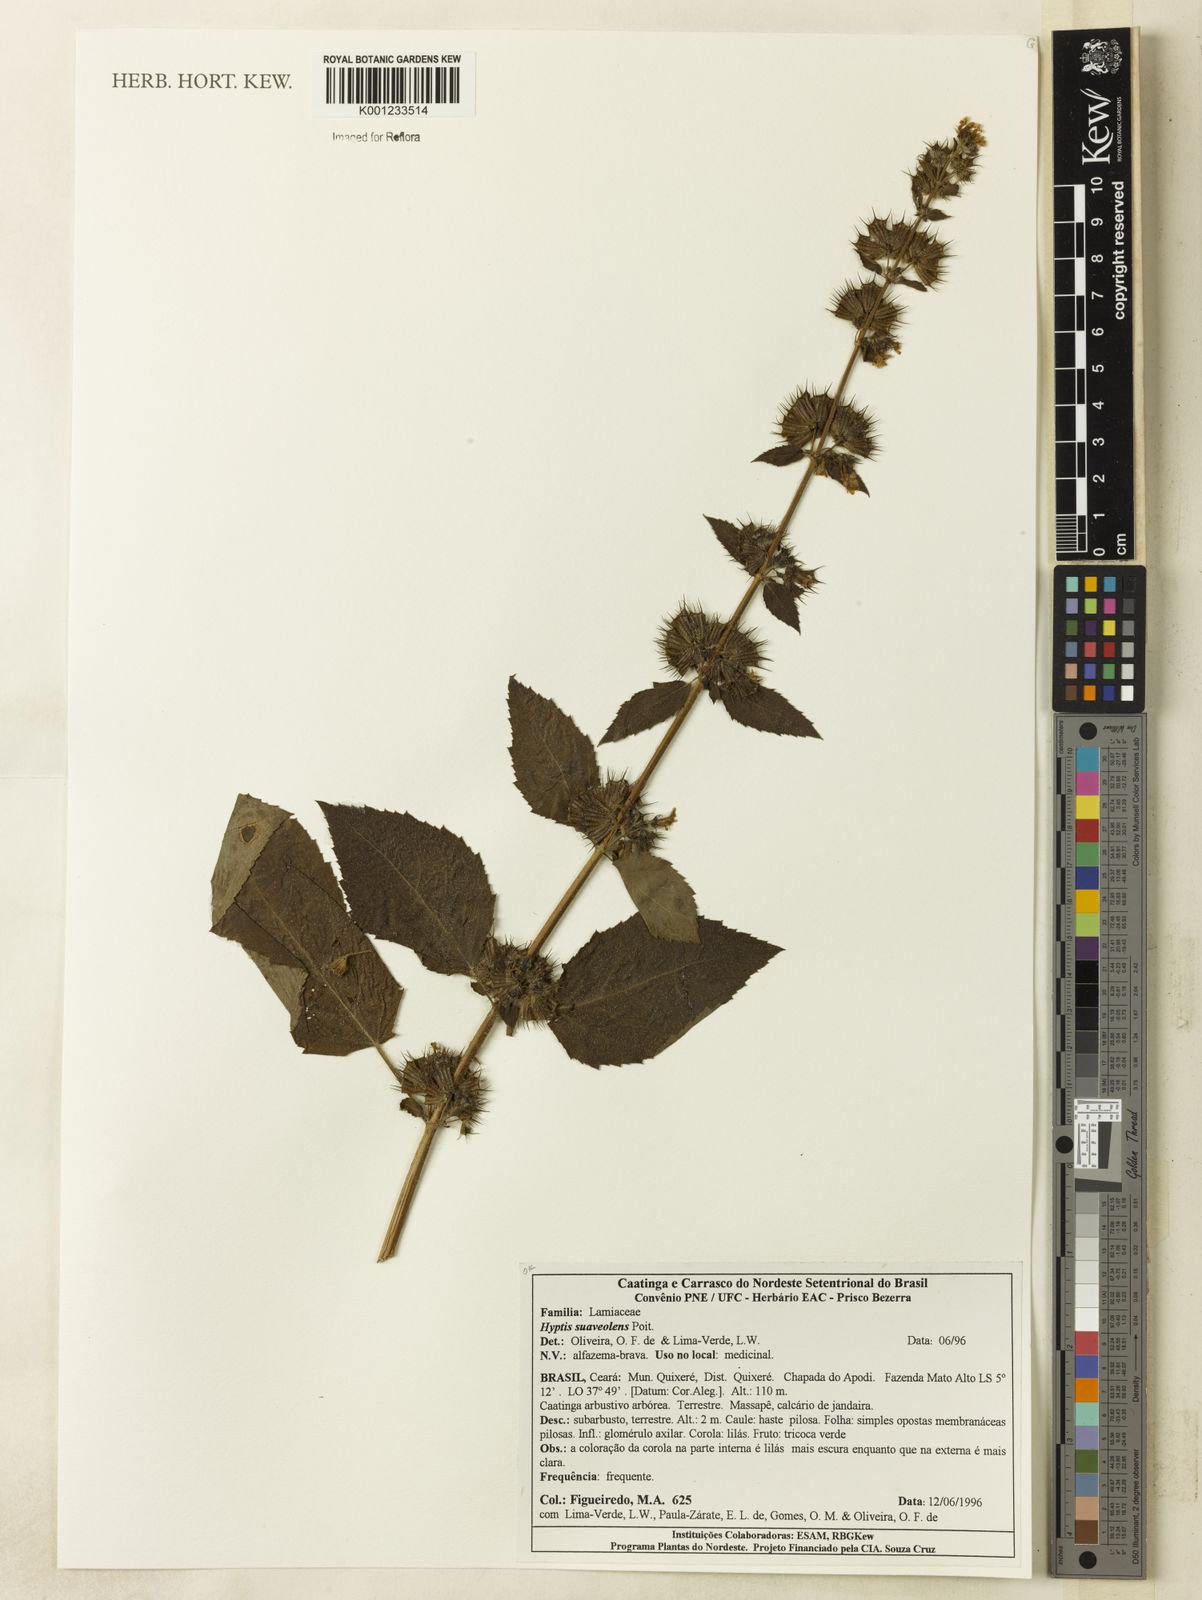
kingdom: Plantae
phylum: Tracheophyta
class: Magnoliopsida
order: Lamiales
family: Lamiaceae
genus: Mesosphaerum
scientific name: Mesosphaerum suaveolens
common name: Pignut
